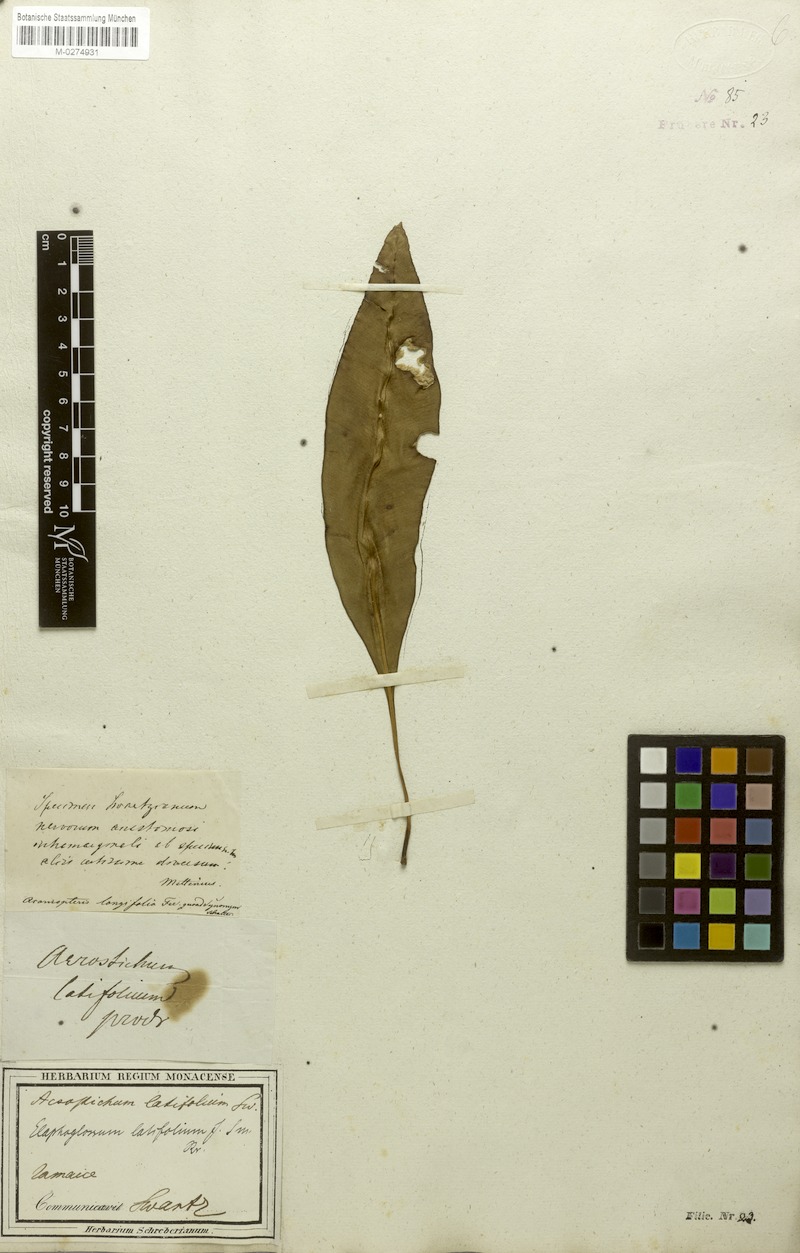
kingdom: Plantae
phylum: Tracheophyta
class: Polypodiopsida
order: Polypodiales
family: Dryopteridaceae
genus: Elaphoglossum
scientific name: Elaphoglossum latifolium
